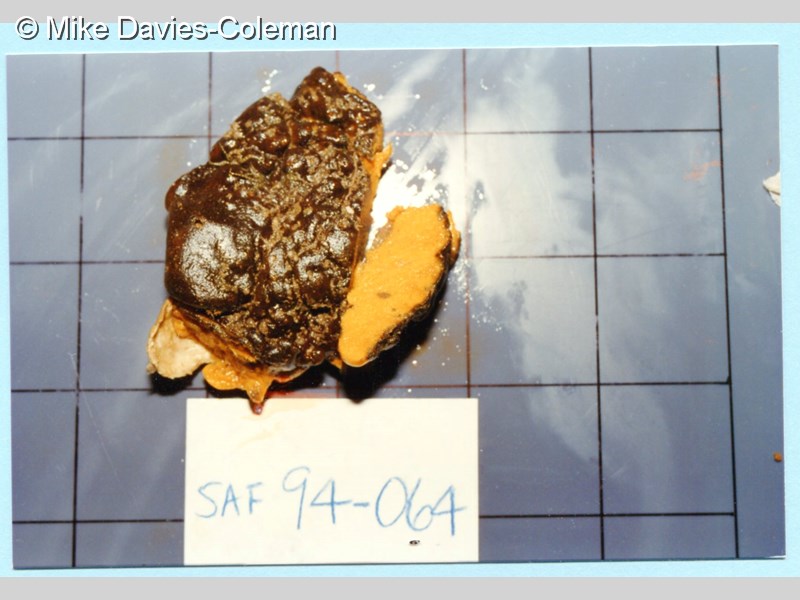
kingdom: Animalia
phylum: Porifera
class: Demospongiae
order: Poecilosclerida
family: Guitarridae
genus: Guitarra
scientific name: Guitarra fimbriata
